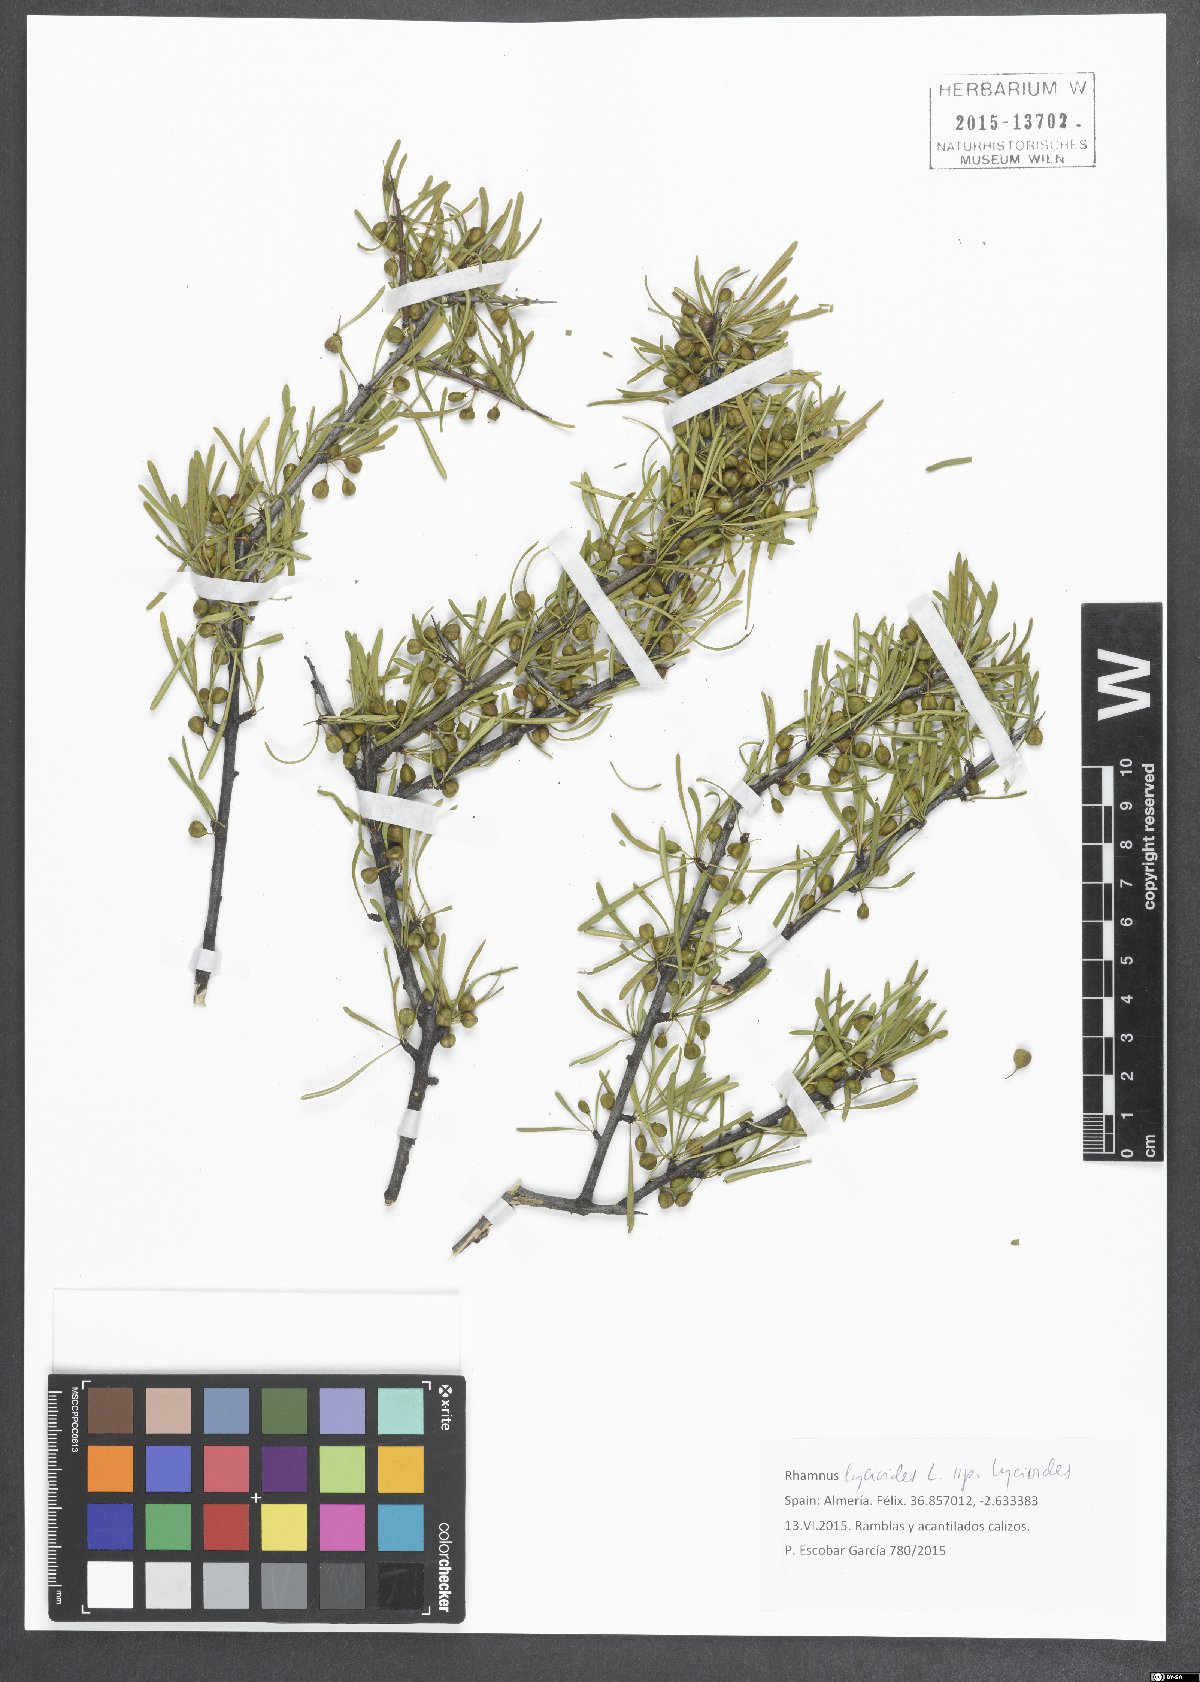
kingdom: Plantae
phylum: Tracheophyta
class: Magnoliopsida
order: Rosales
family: Rhamnaceae
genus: Rhamnus
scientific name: Rhamnus lycioides
